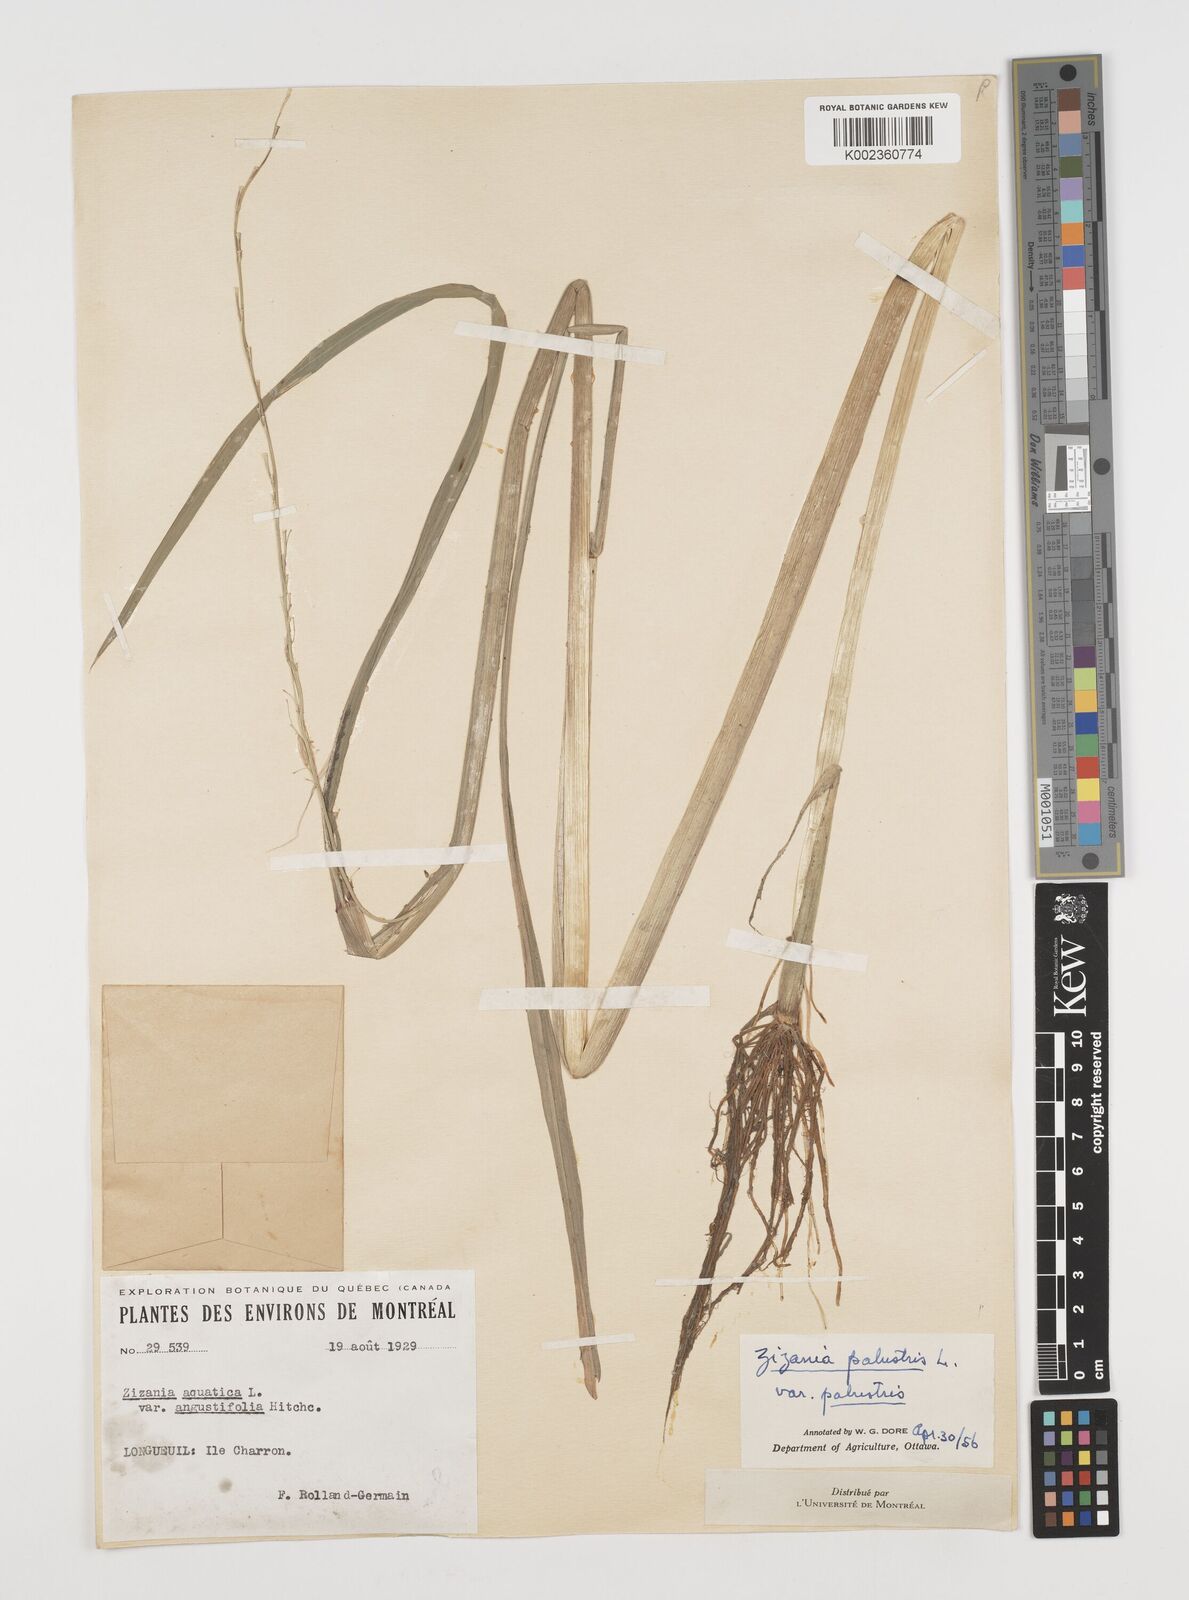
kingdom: Plantae
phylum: Tracheophyta
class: Liliopsida
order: Poales
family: Poaceae
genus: Zizania
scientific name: Zizania palustris
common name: Northern wild rice
